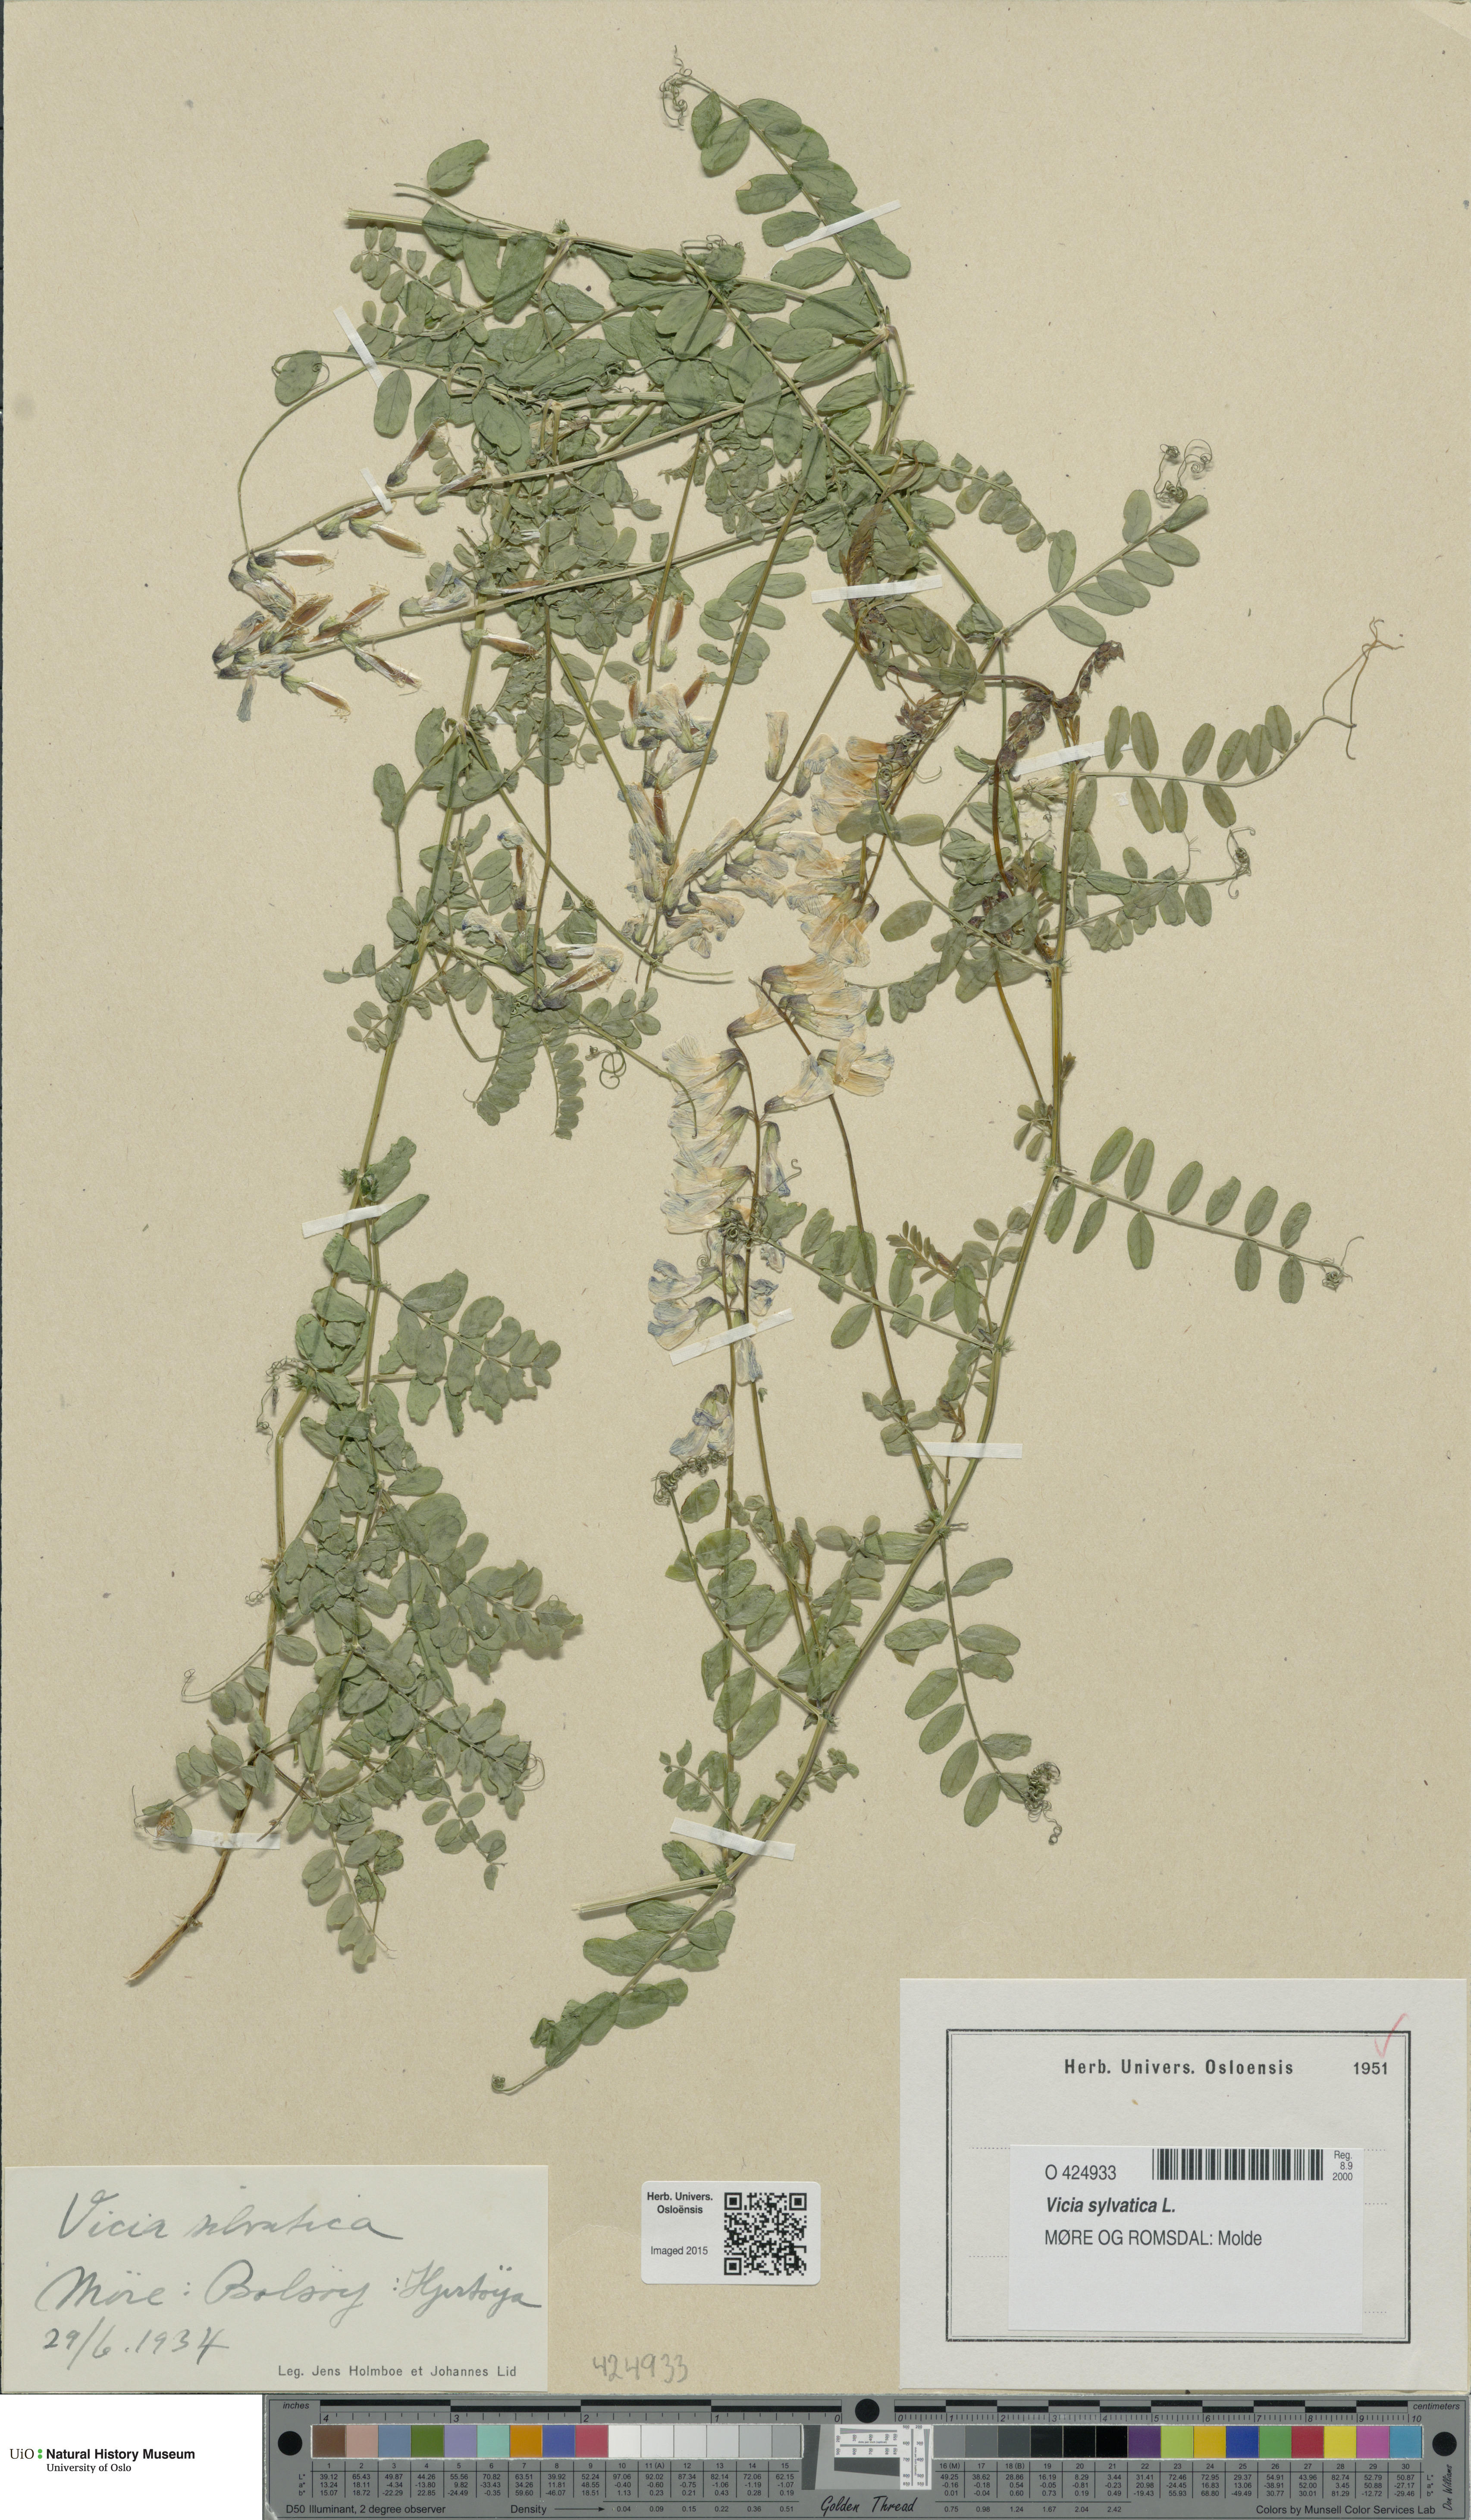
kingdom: Plantae
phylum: Tracheophyta
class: Magnoliopsida
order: Fabales
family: Fabaceae
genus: Vicia
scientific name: Vicia sylvatica
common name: Wood vetch
